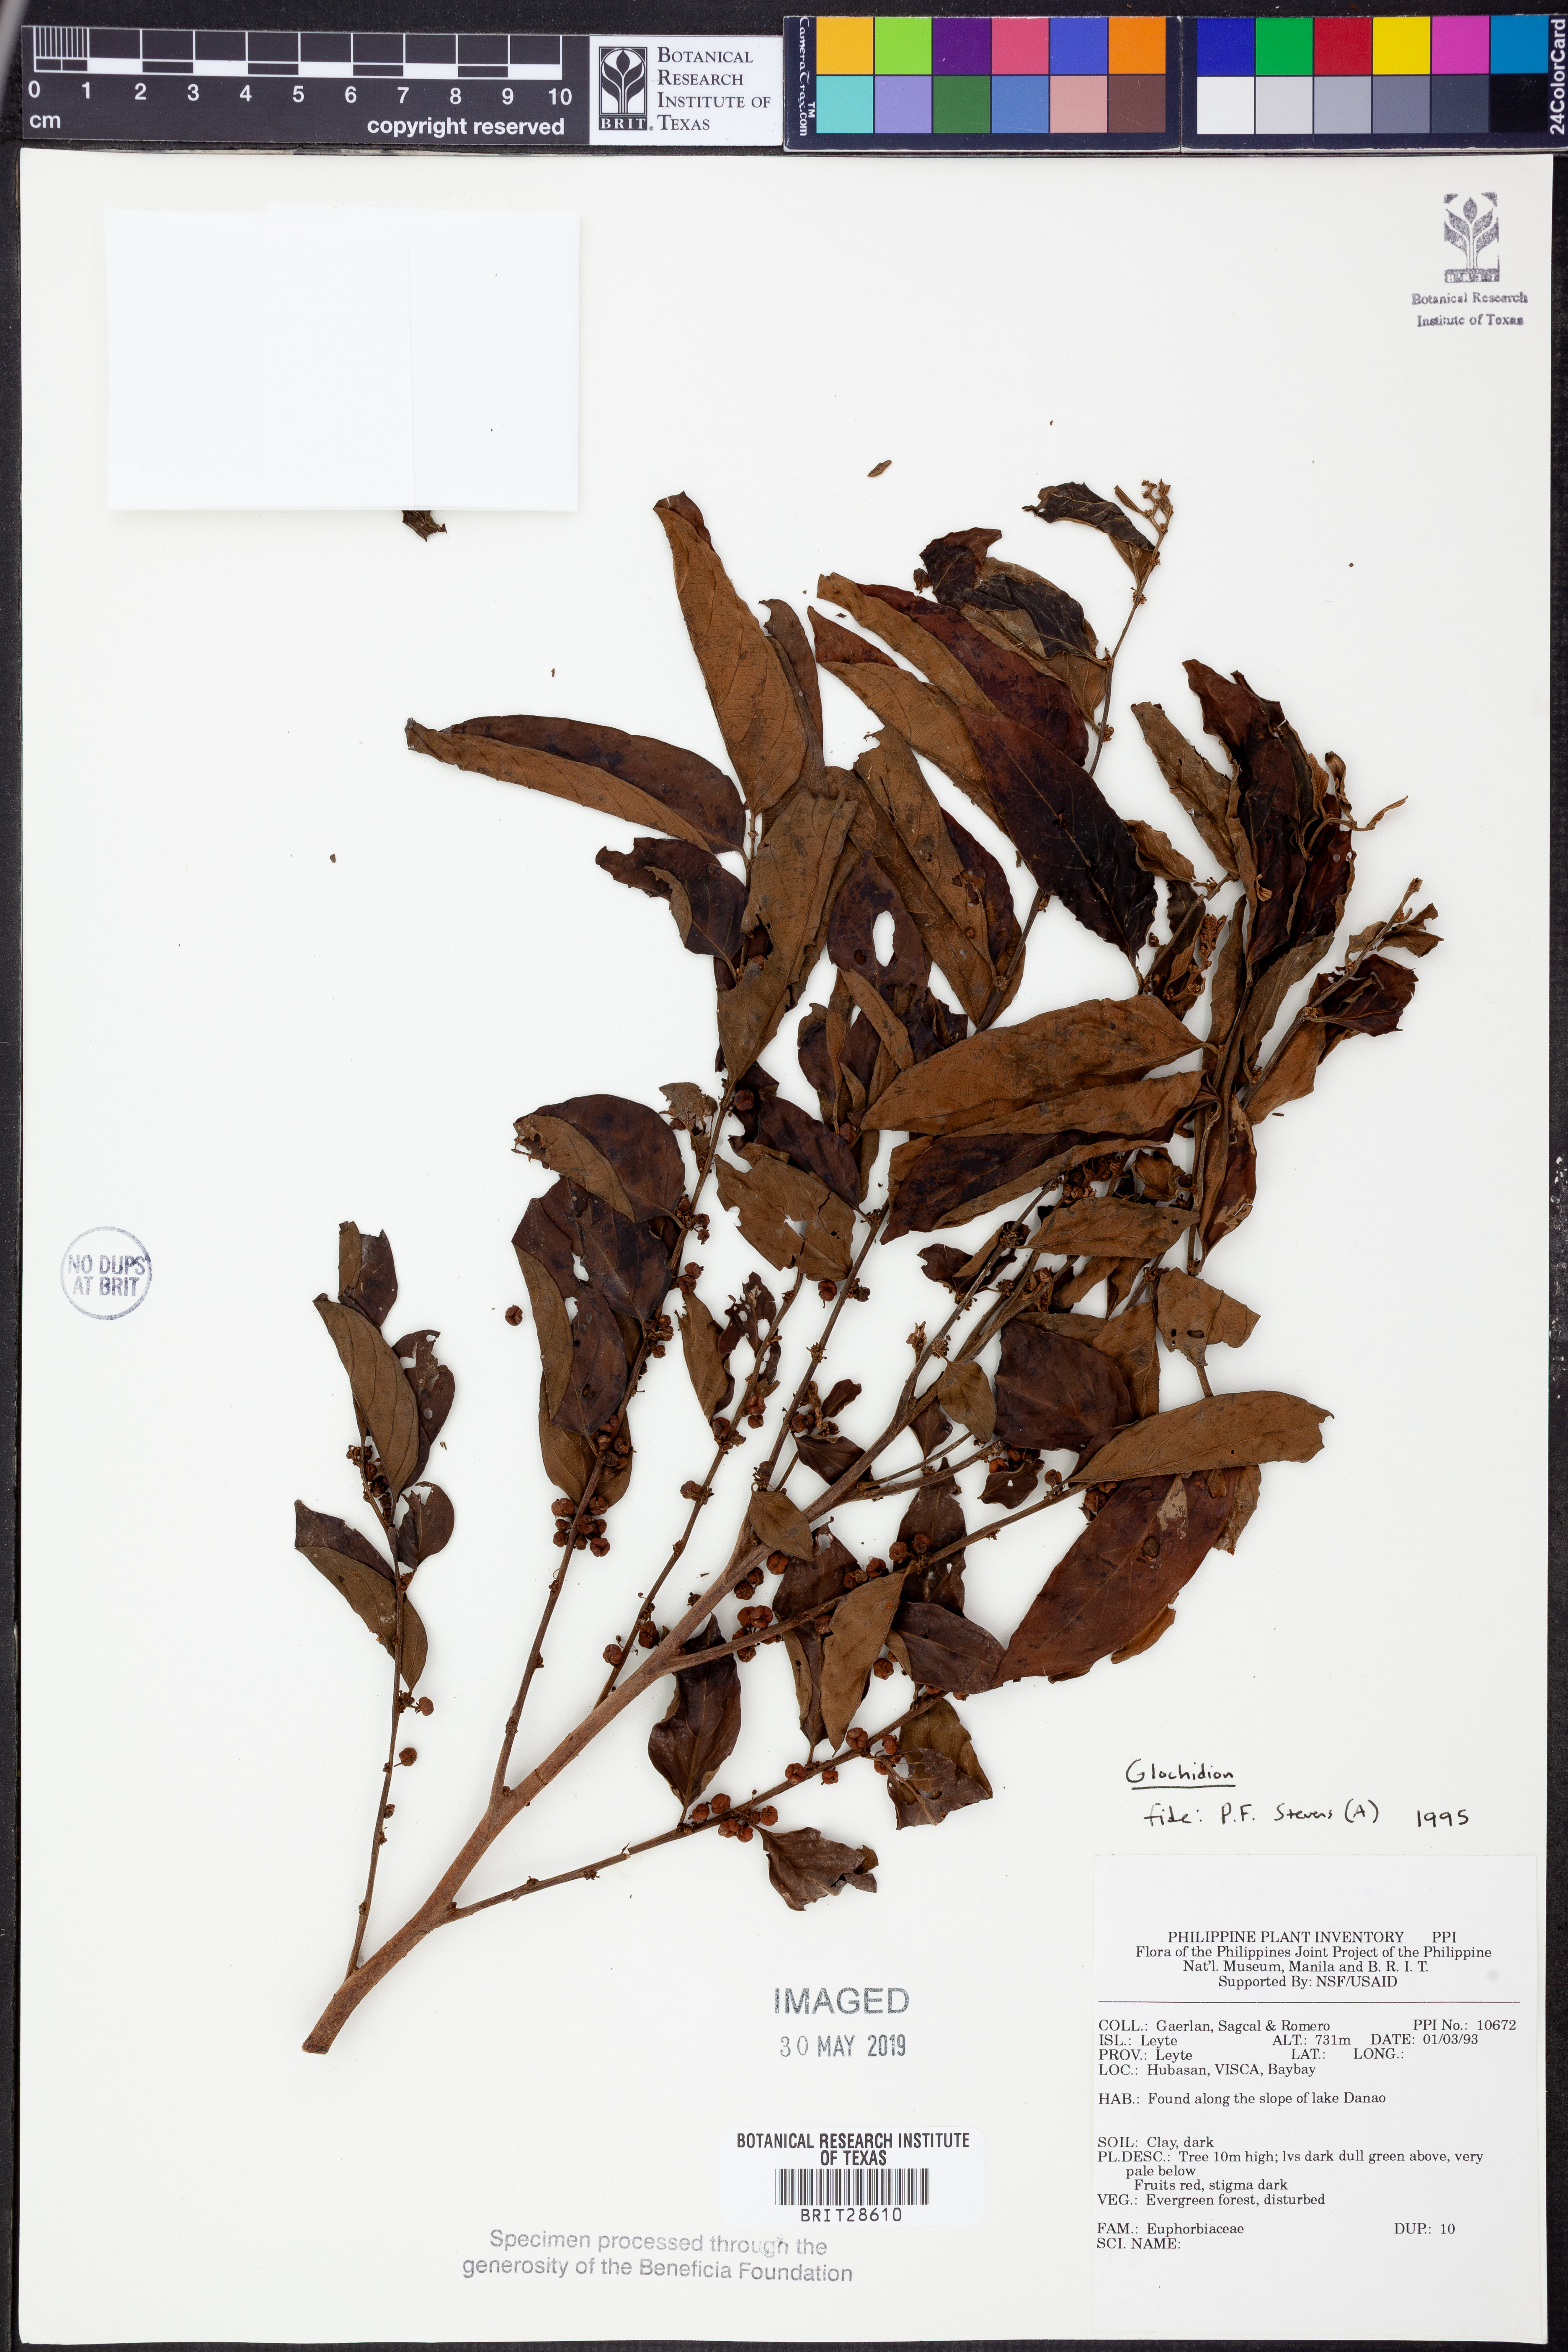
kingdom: Plantae
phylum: Tracheophyta
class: Magnoliopsida
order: Malpighiales
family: Phyllanthaceae
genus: Glochidion
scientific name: Glochidion
